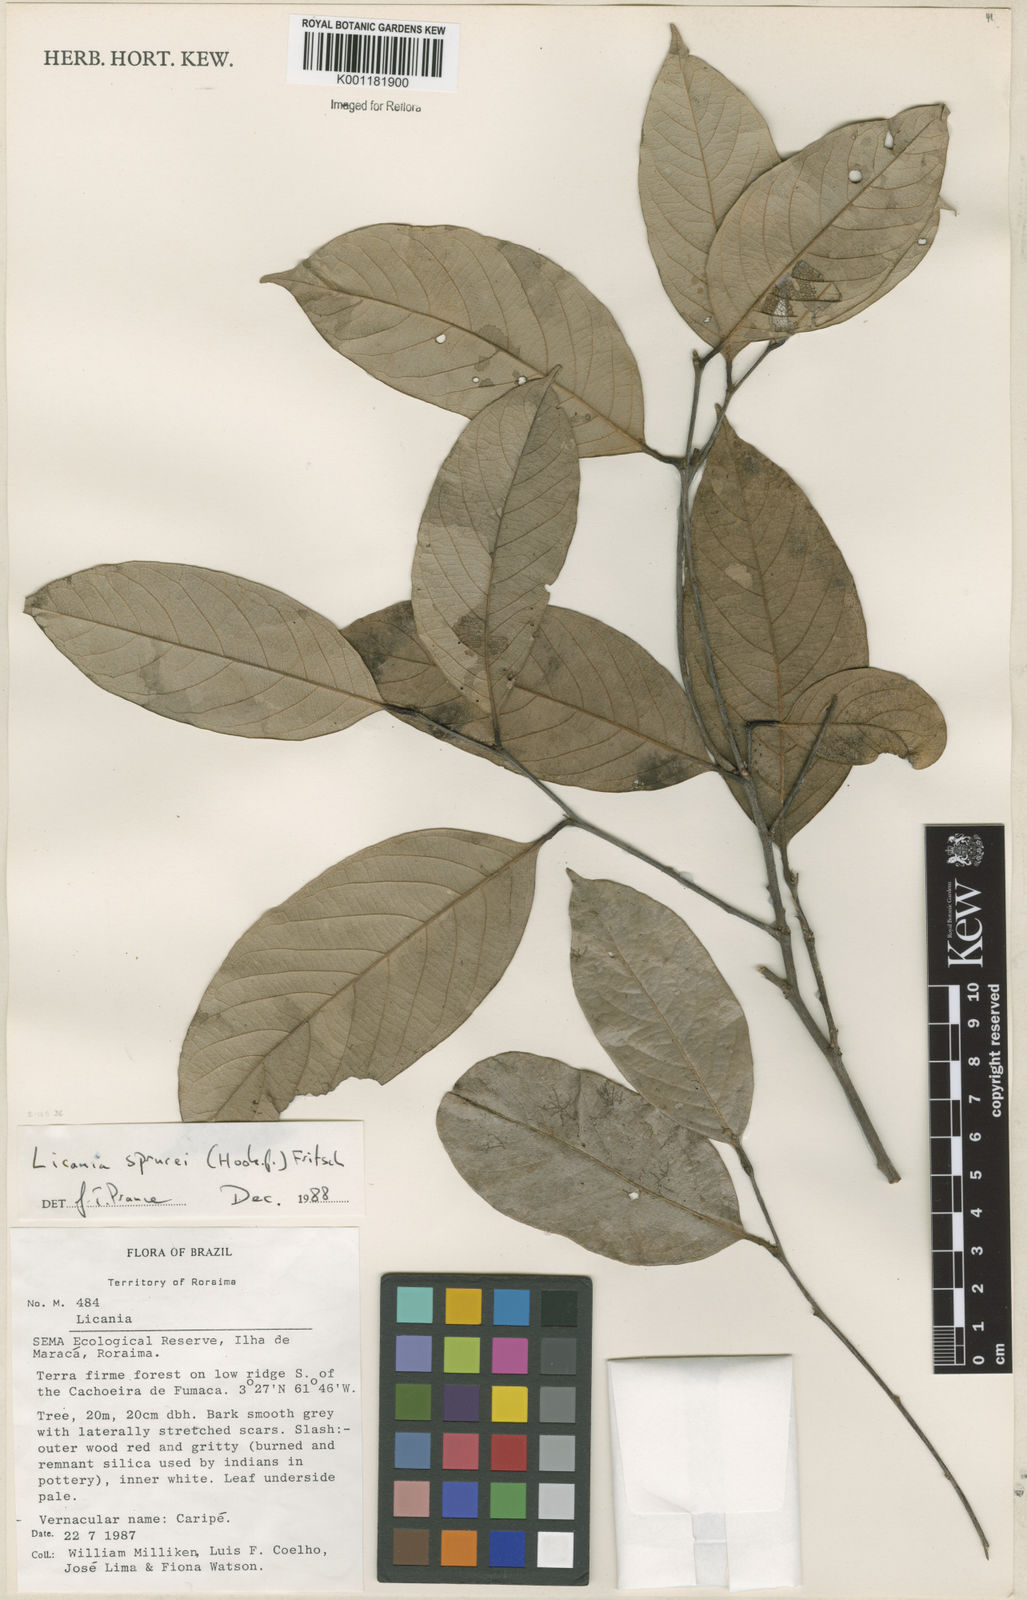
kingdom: Plantae
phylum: Tracheophyta
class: Magnoliopsida
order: Malpighiales
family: Chrysobalanaceae
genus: Leptobalanus
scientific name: Leptobalanus sprucei
